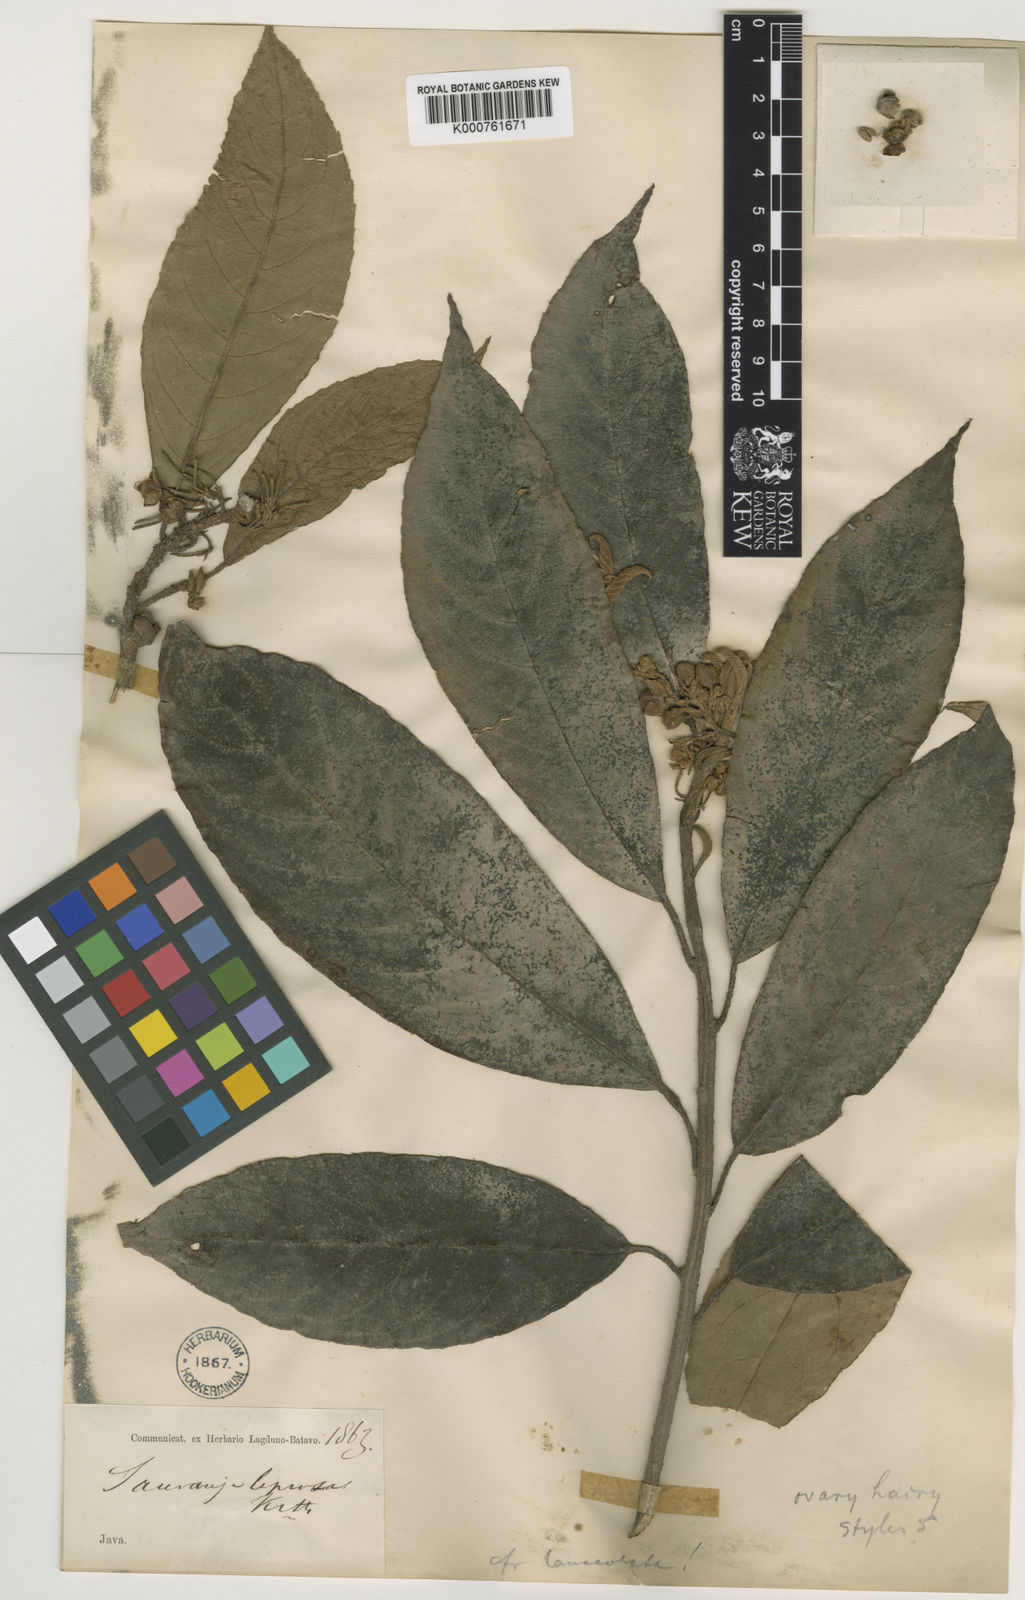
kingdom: Plantae
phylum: Tracheophyta
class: Magnoliopsida
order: Ericales
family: Actinidiaceae
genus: Saurauia
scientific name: Saurauia leprosa
